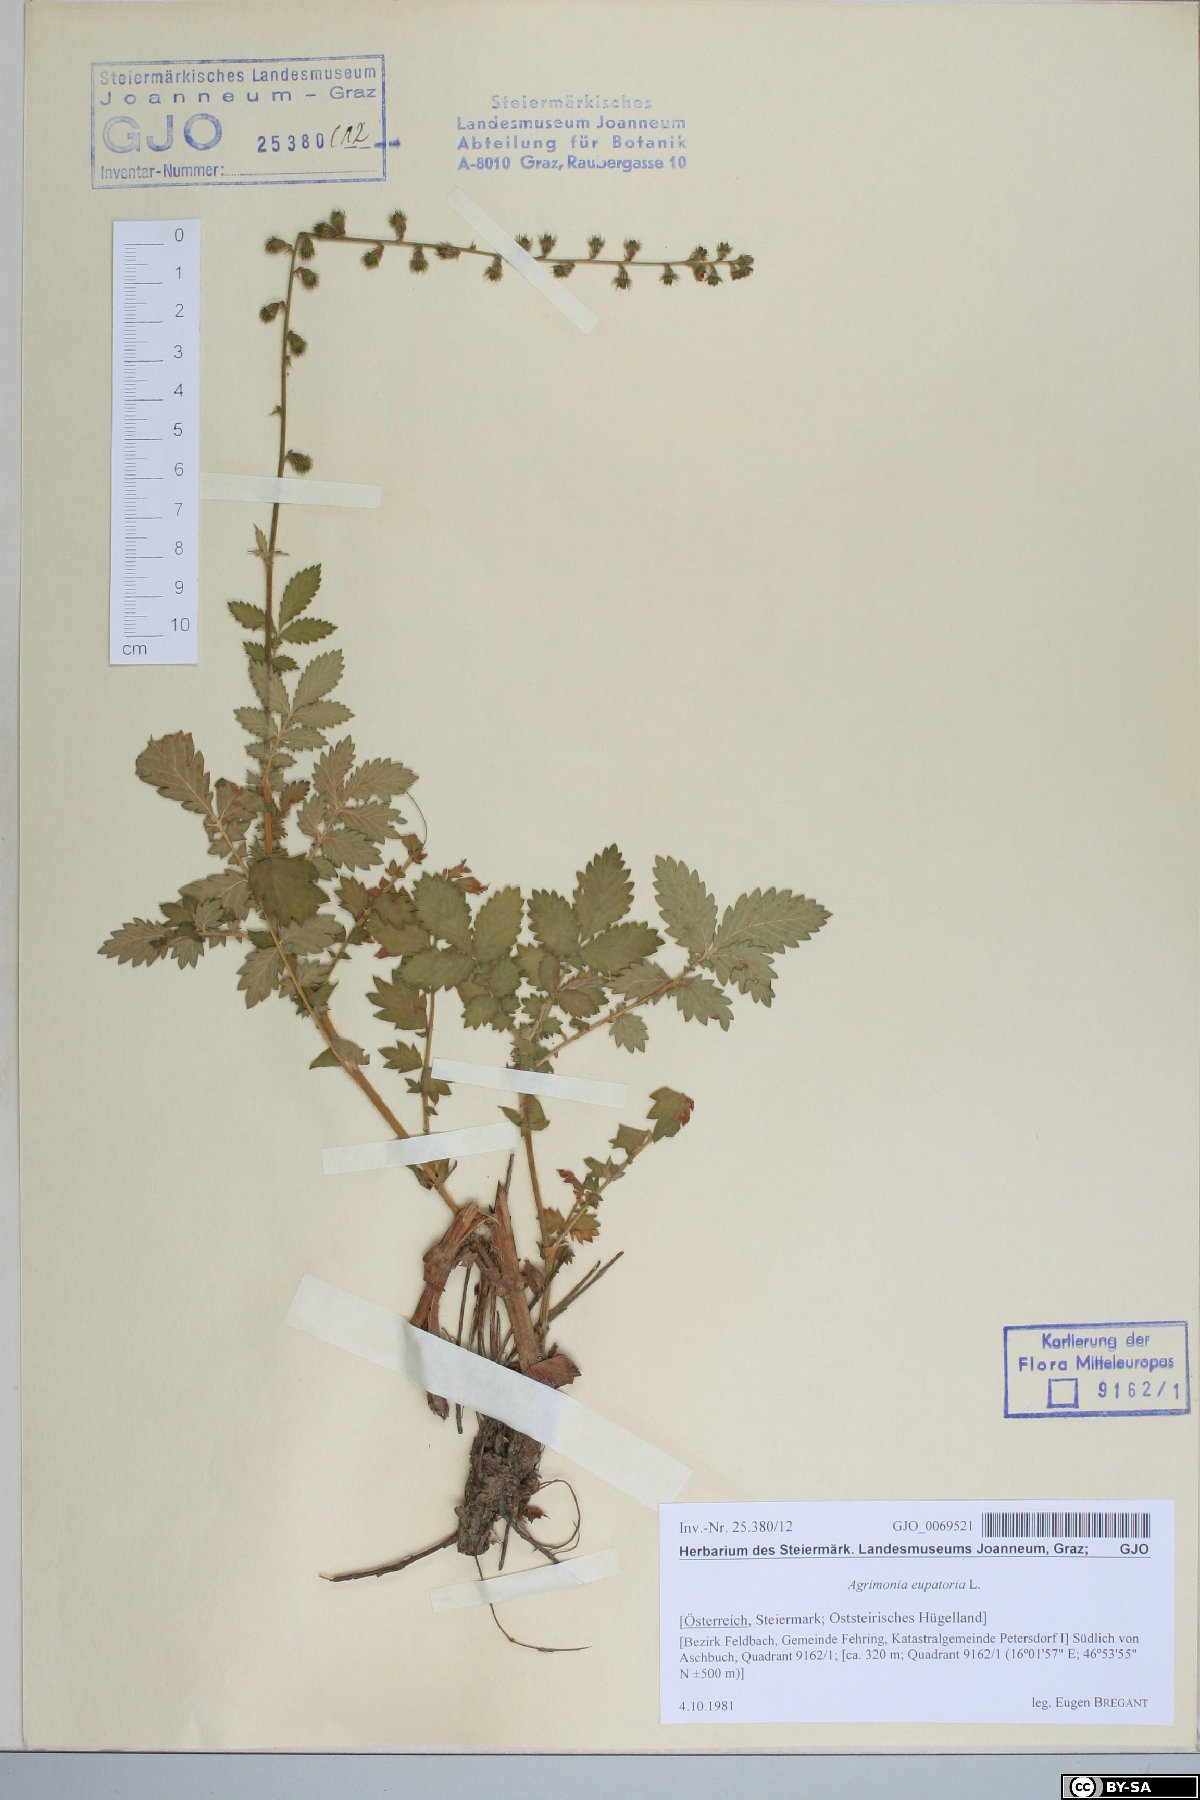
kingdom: Plantae
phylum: Tracheophyta
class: Magnoliopsida
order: Rosales
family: Rosaceae
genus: Agrimonia
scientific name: Agrimonia eupatoria
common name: Agrimony
